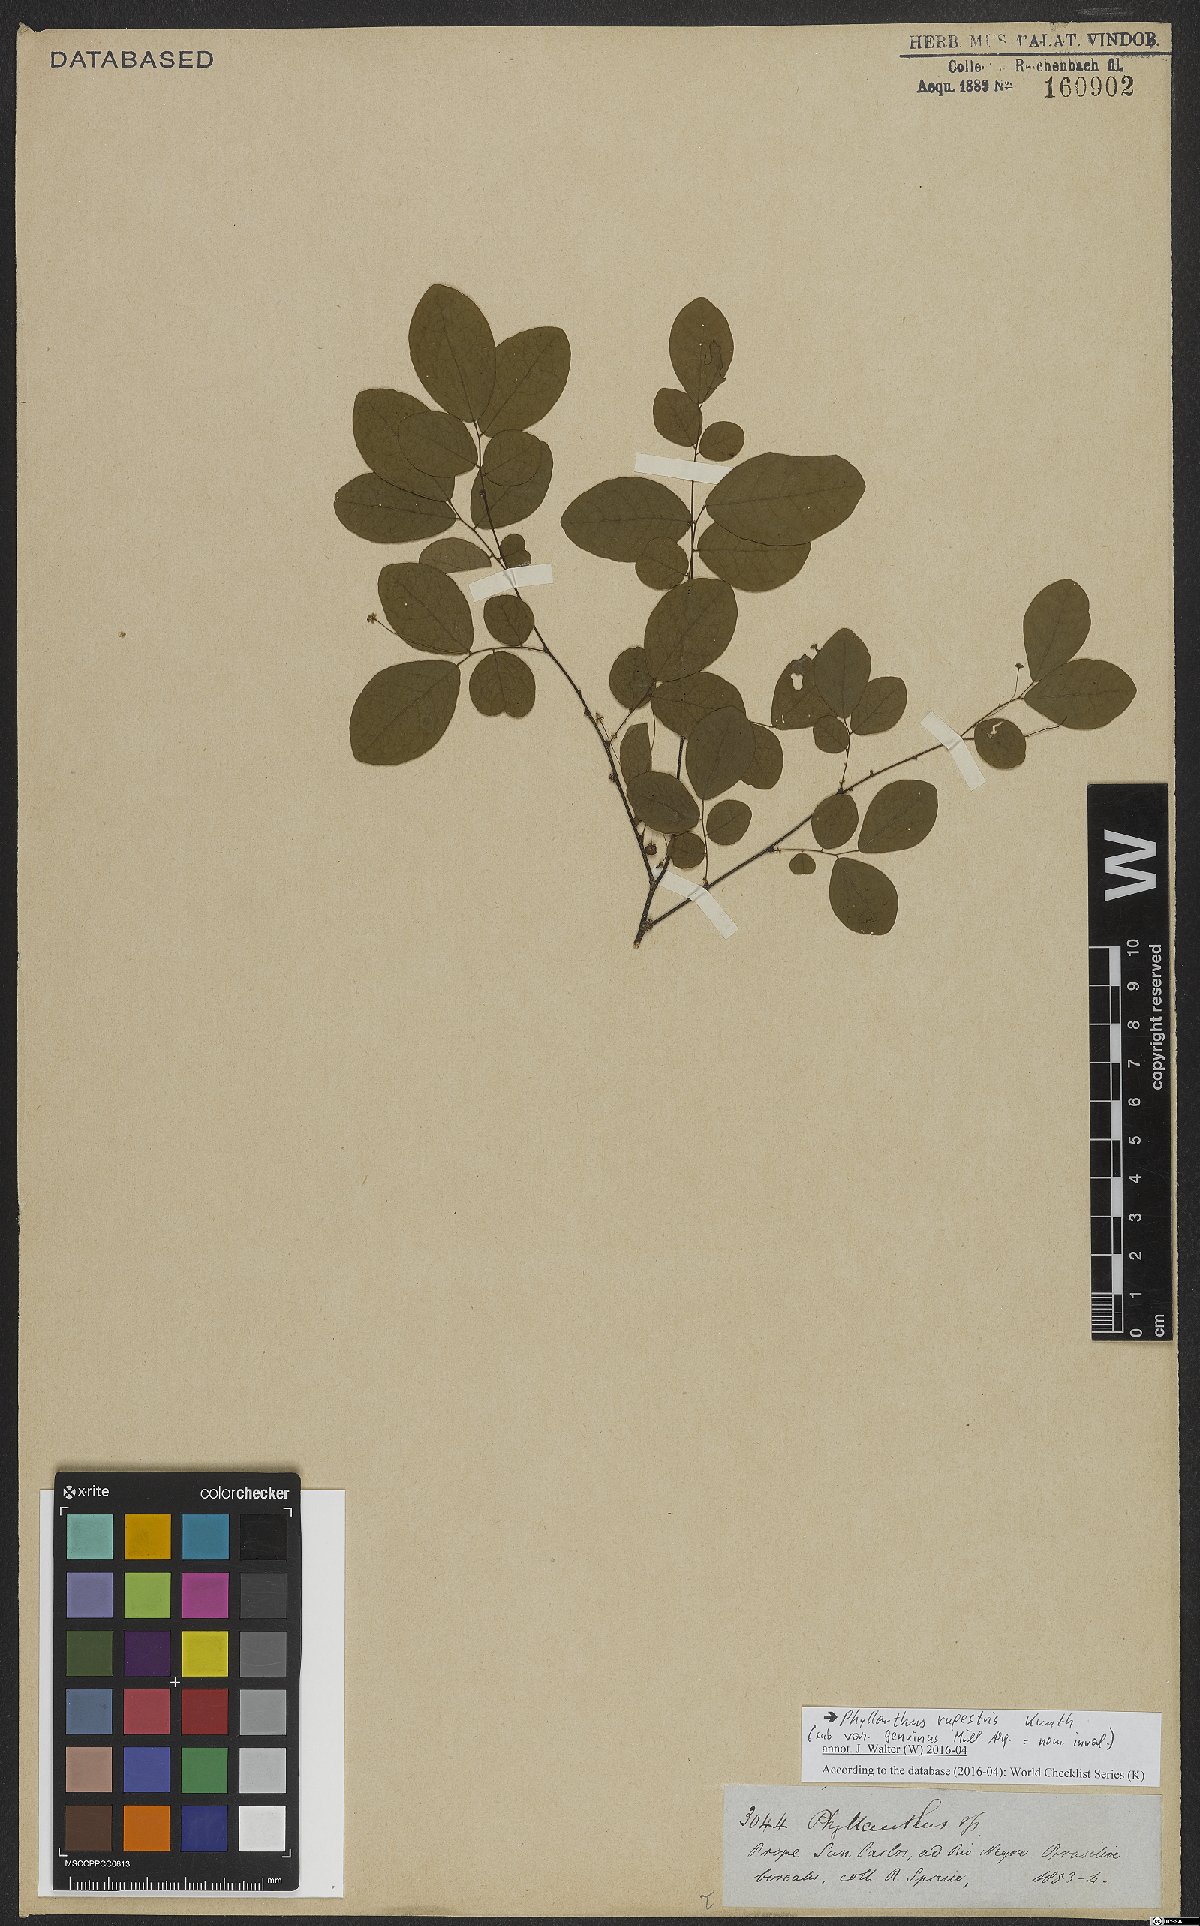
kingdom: Plantae
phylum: Tracheophyta
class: Magnoliopsida
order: Malpighiales
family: Phyllanthaceae
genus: Phyllanthus
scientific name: Phyllanthus rupestris
